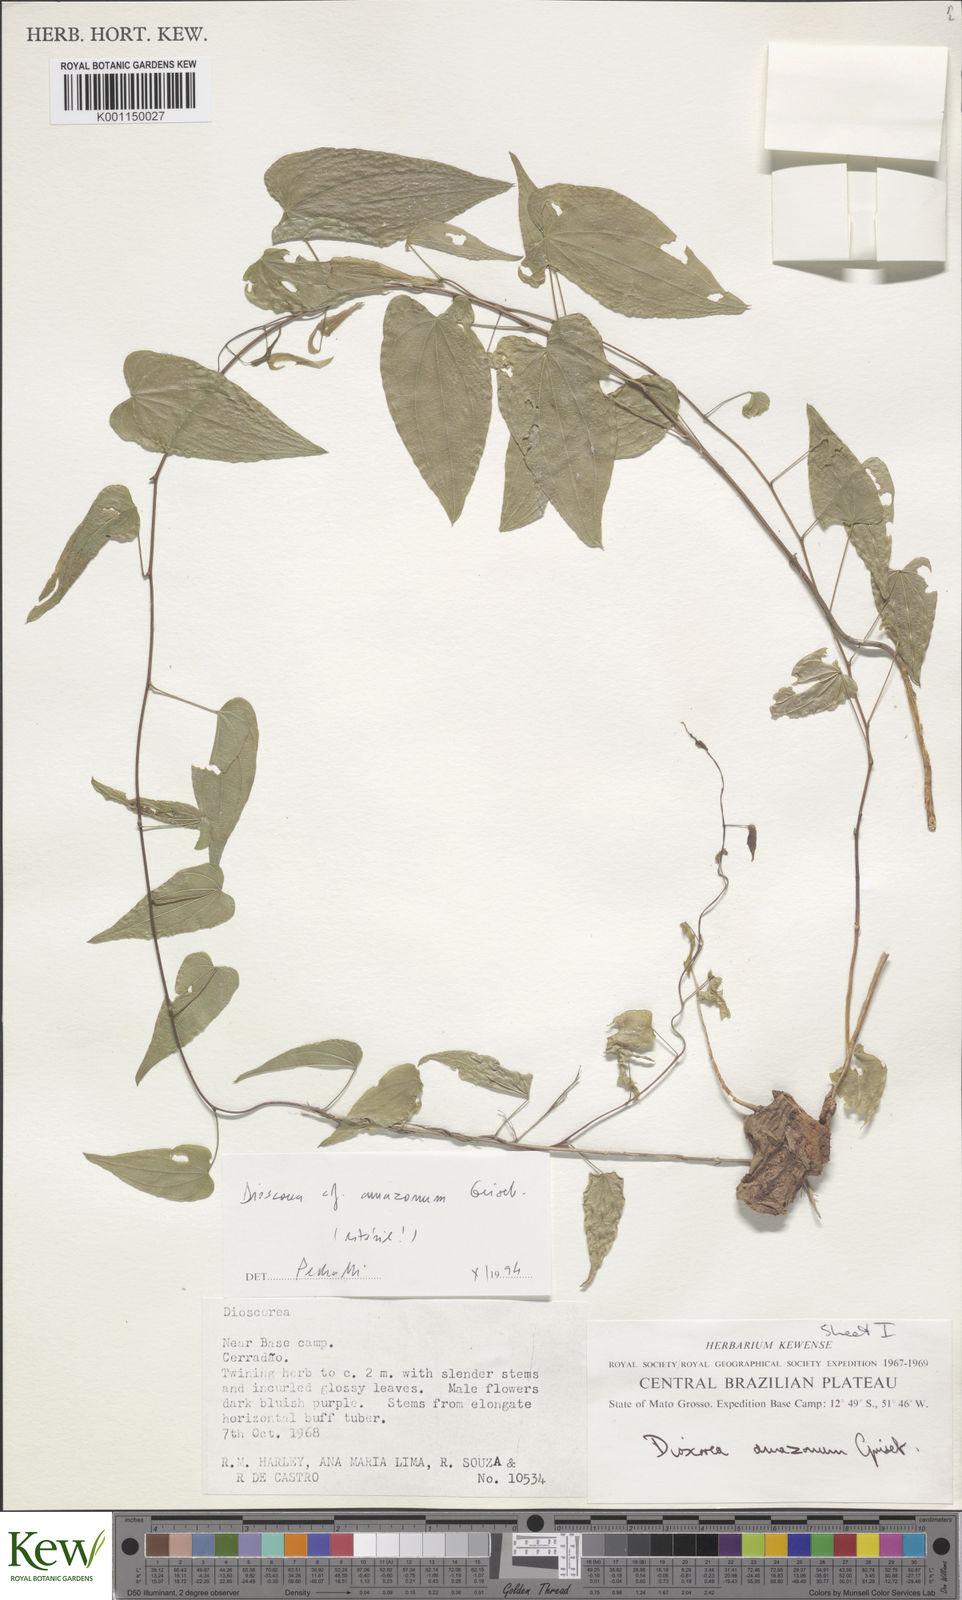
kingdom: Plantae
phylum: Tracheophyta
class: Liliopsida
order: Dioscoreales
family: Dioscoreaceae
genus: Dioscorea
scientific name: Dioscorea orthogoneura
